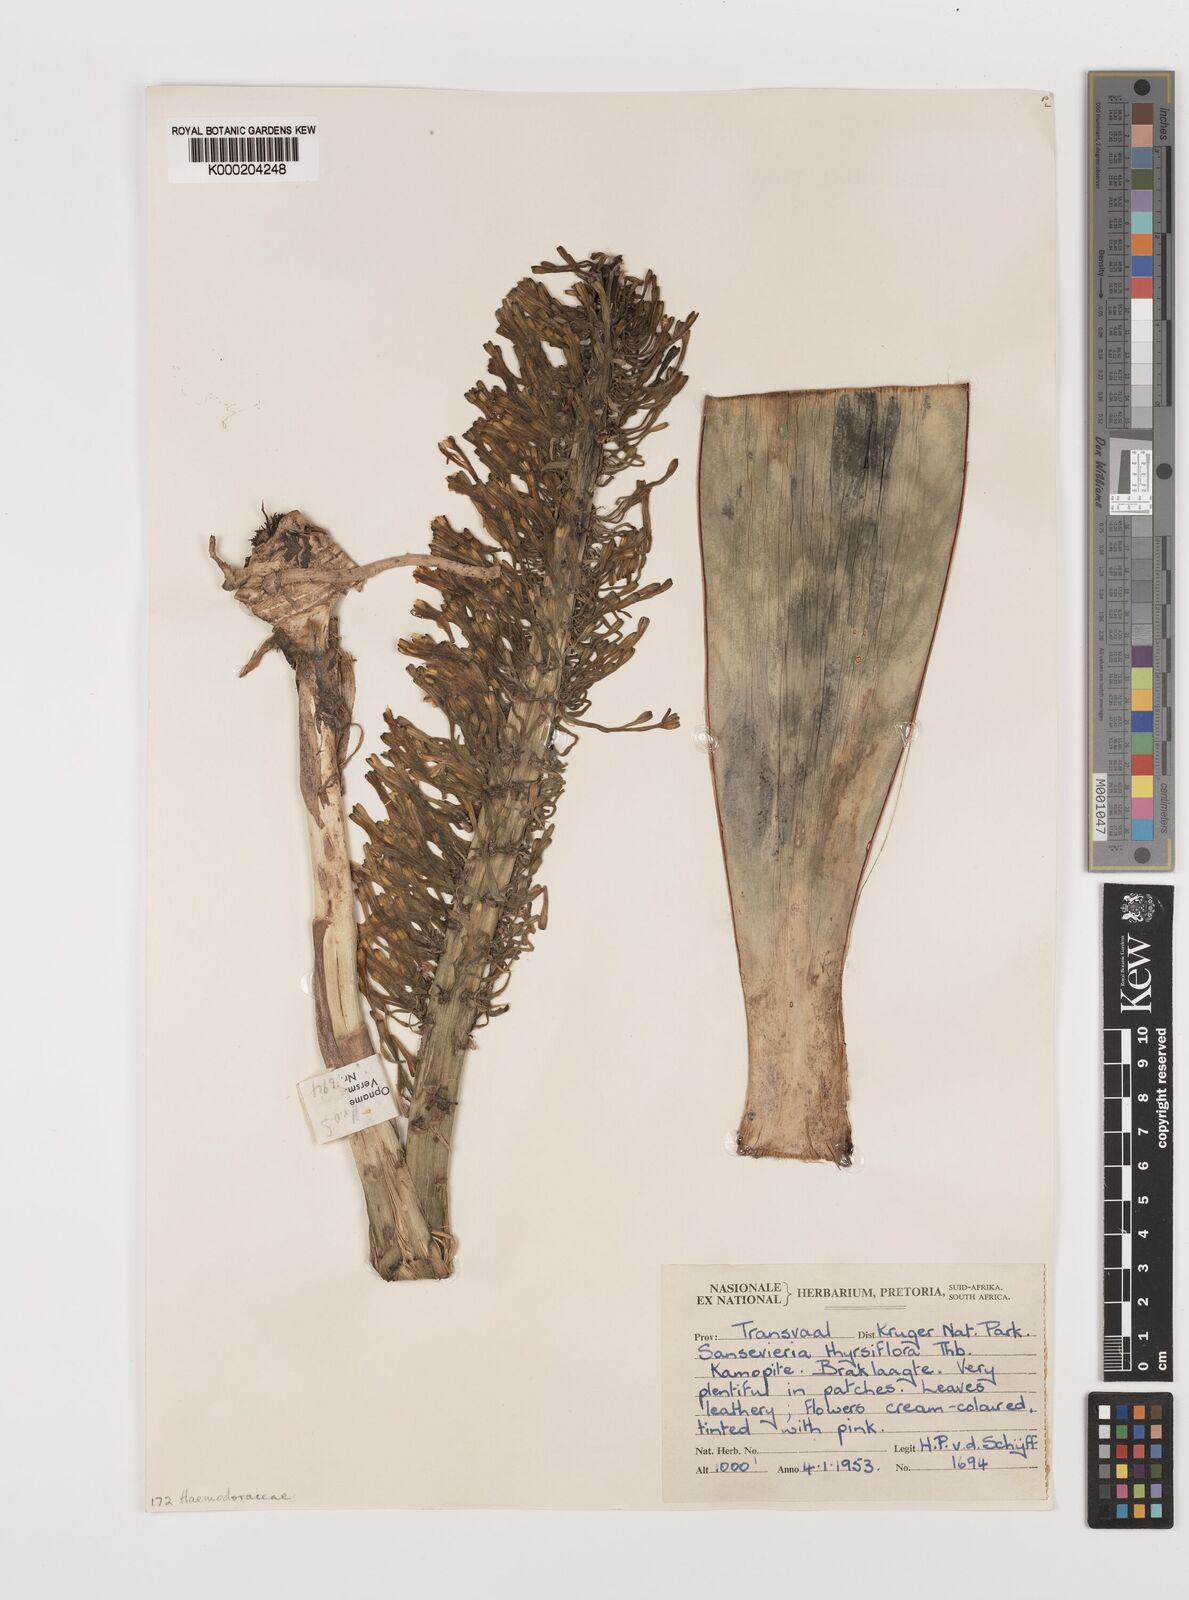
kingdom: Plantae
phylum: Tracheophyta
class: Liliopsida
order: Asparagales
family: Asparagaceae
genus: Dracaena
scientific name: Dracaena hyacinthoides
